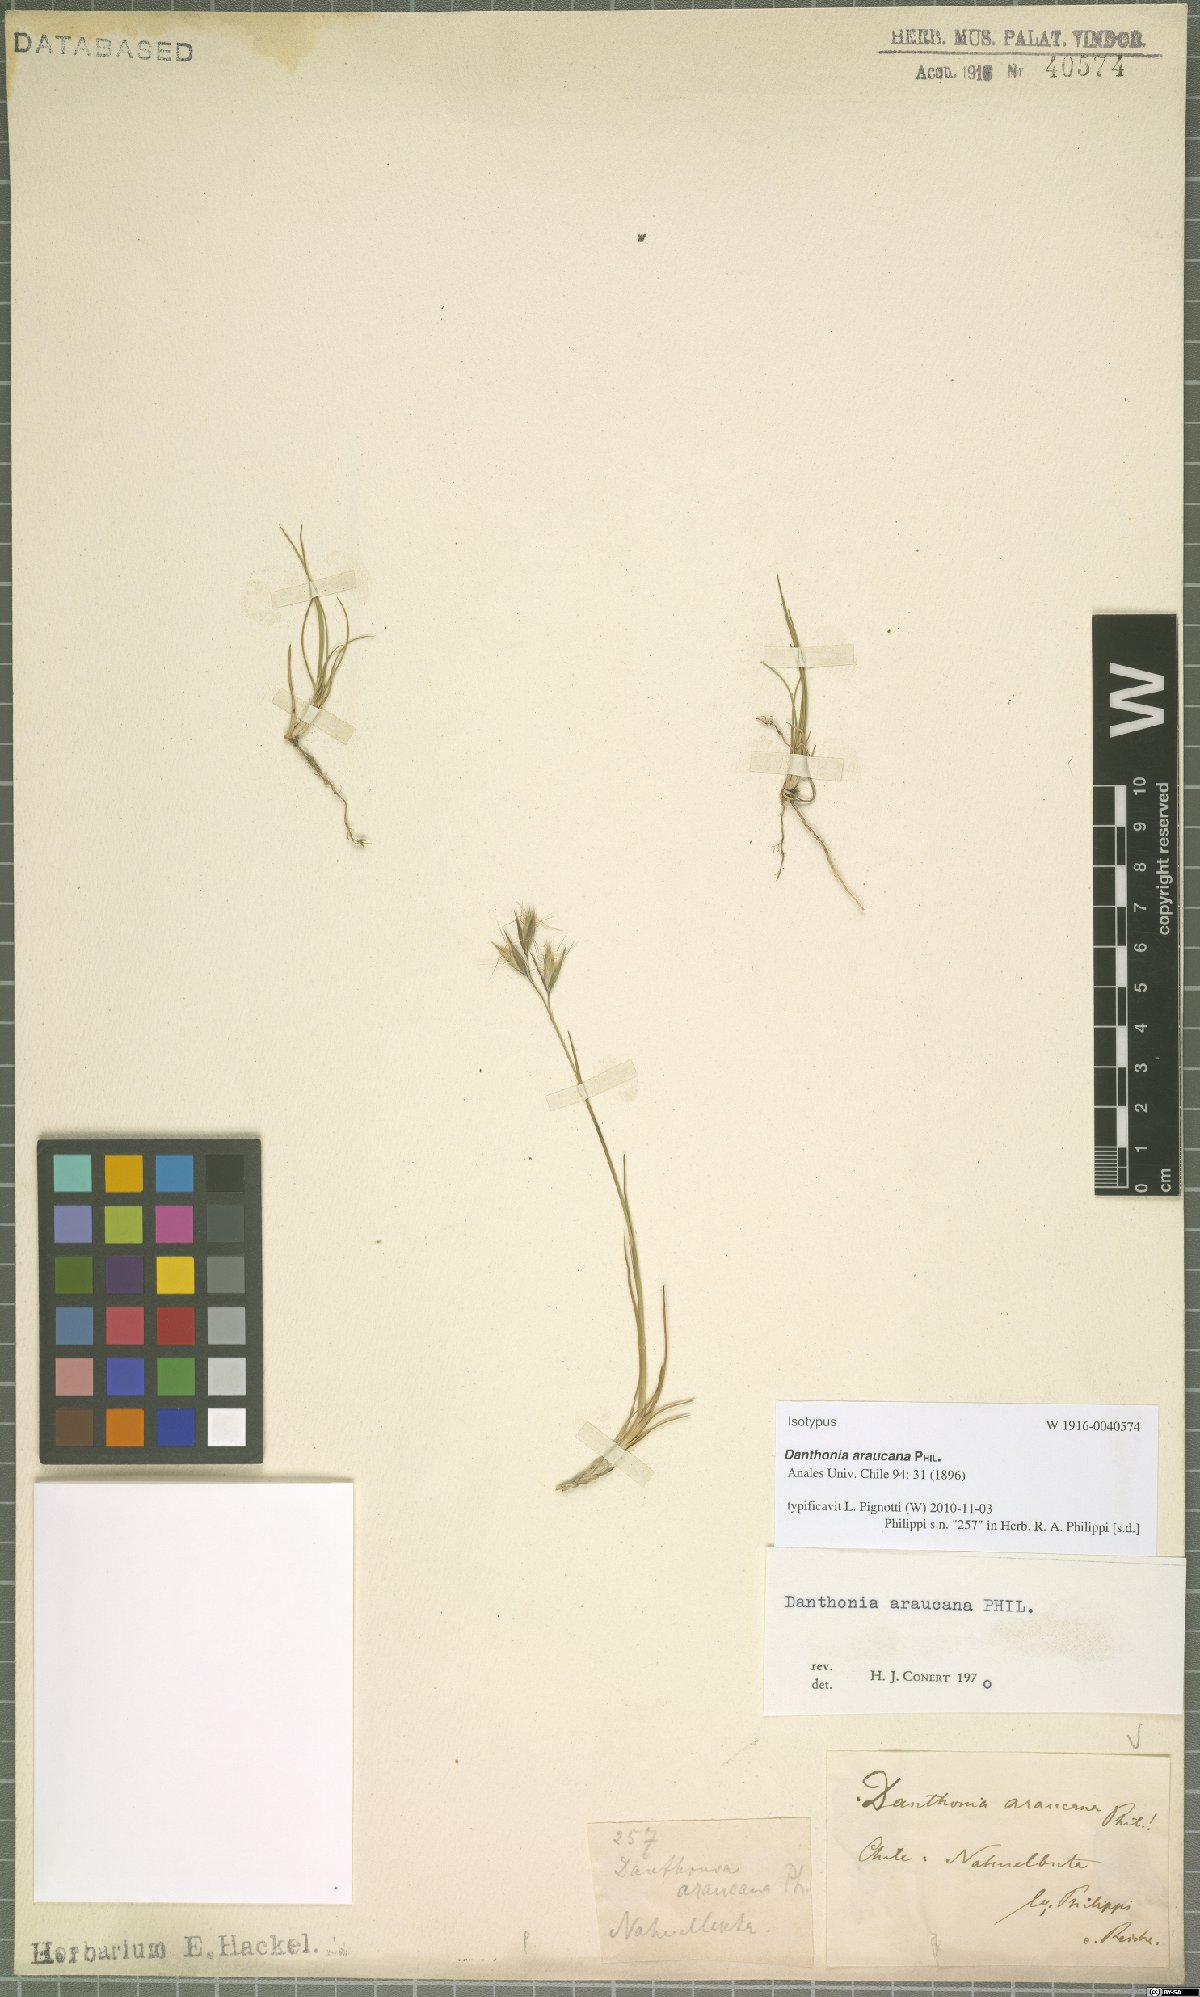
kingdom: Plantae
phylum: Tracheophyta
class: Liliopsida
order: Poales
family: Poaceae
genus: Danthonia
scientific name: Danthonia araucana
